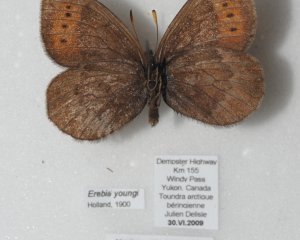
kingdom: Animalia
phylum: Arthropoda
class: Insecta
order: Lepidoptera
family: Nymphalidae
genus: Erebia
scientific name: Erebia youngi
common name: Four-dotted Alpine
